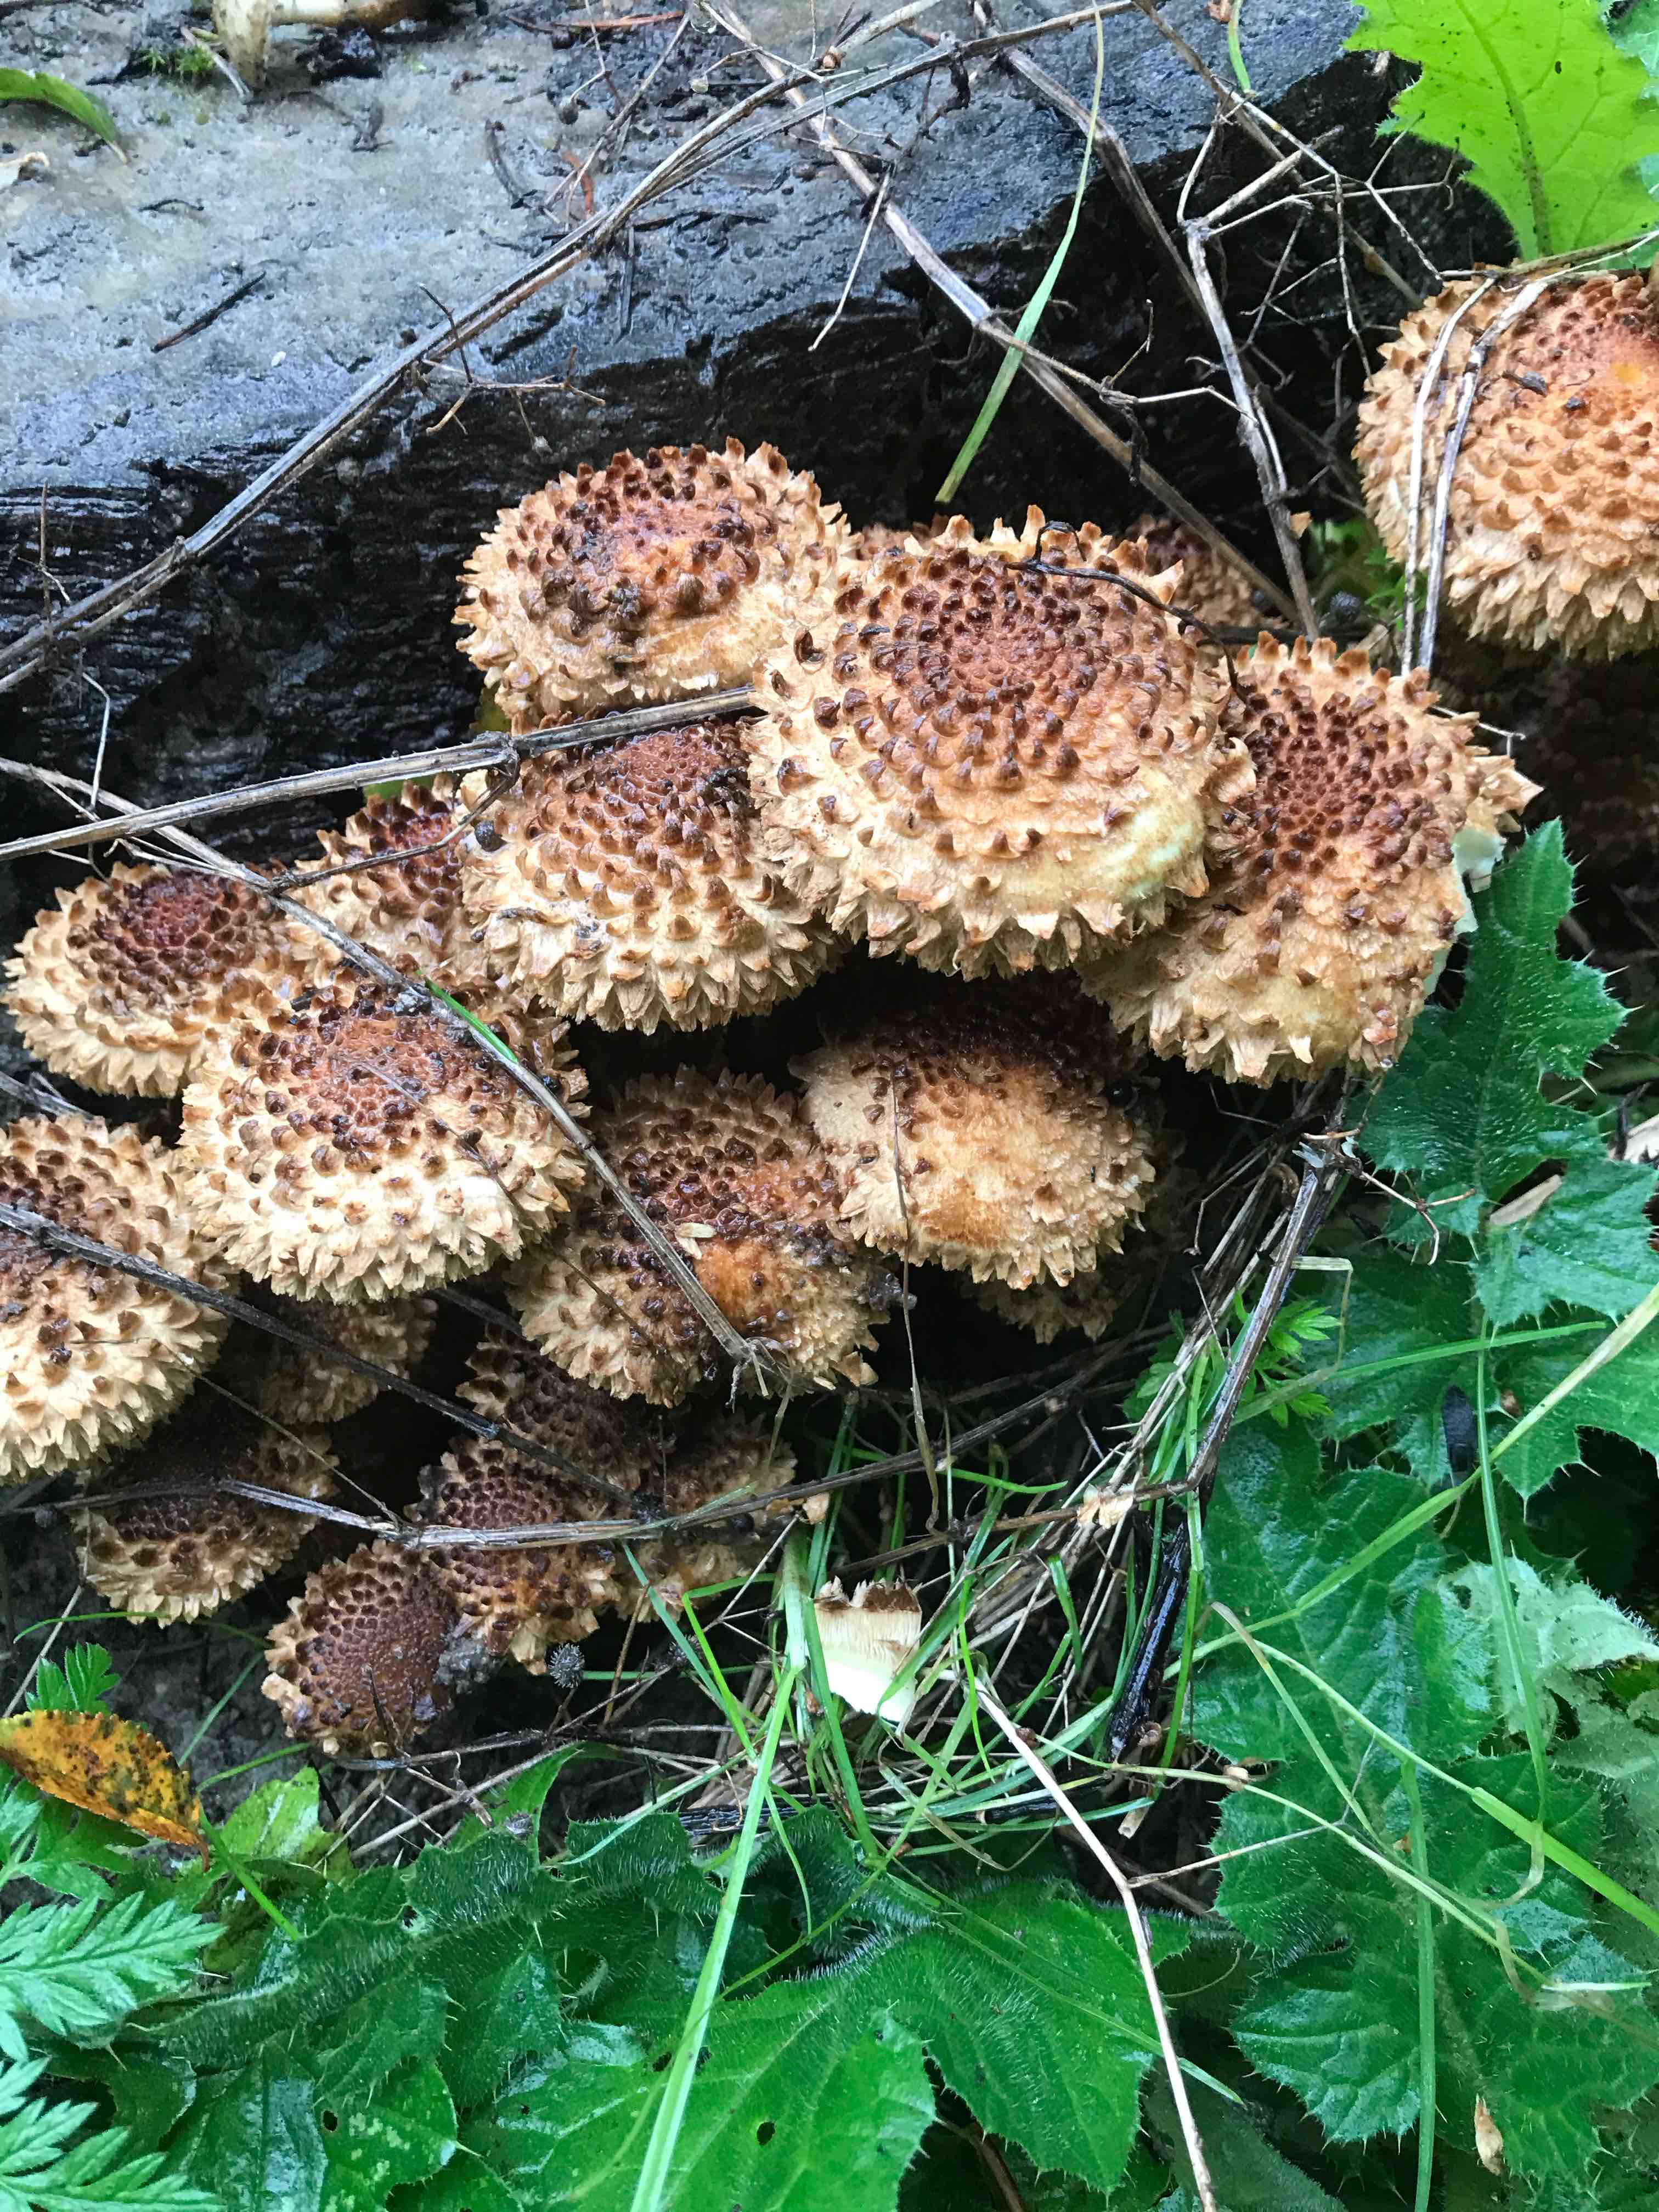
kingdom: Fungi
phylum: Basidiomycota
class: Agaricomycetes
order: Agaricales
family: Strophariaceae
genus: Pholiota
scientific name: Pholiota squarrosa
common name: krumskællet skælhat
